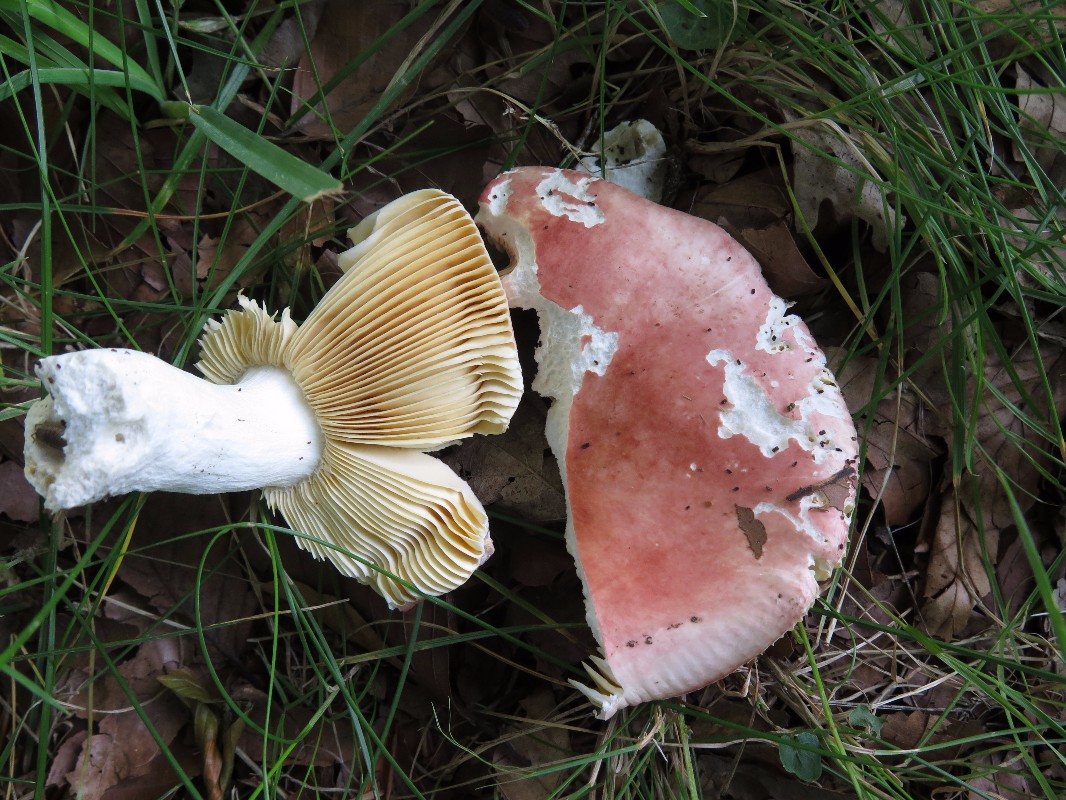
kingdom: Fungi
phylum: Basidiomycota
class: Agaricomycetes
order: Russulales
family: Russulaceae
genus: Russula
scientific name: Russula pseudointegra
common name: cinnoberrød skørhat
